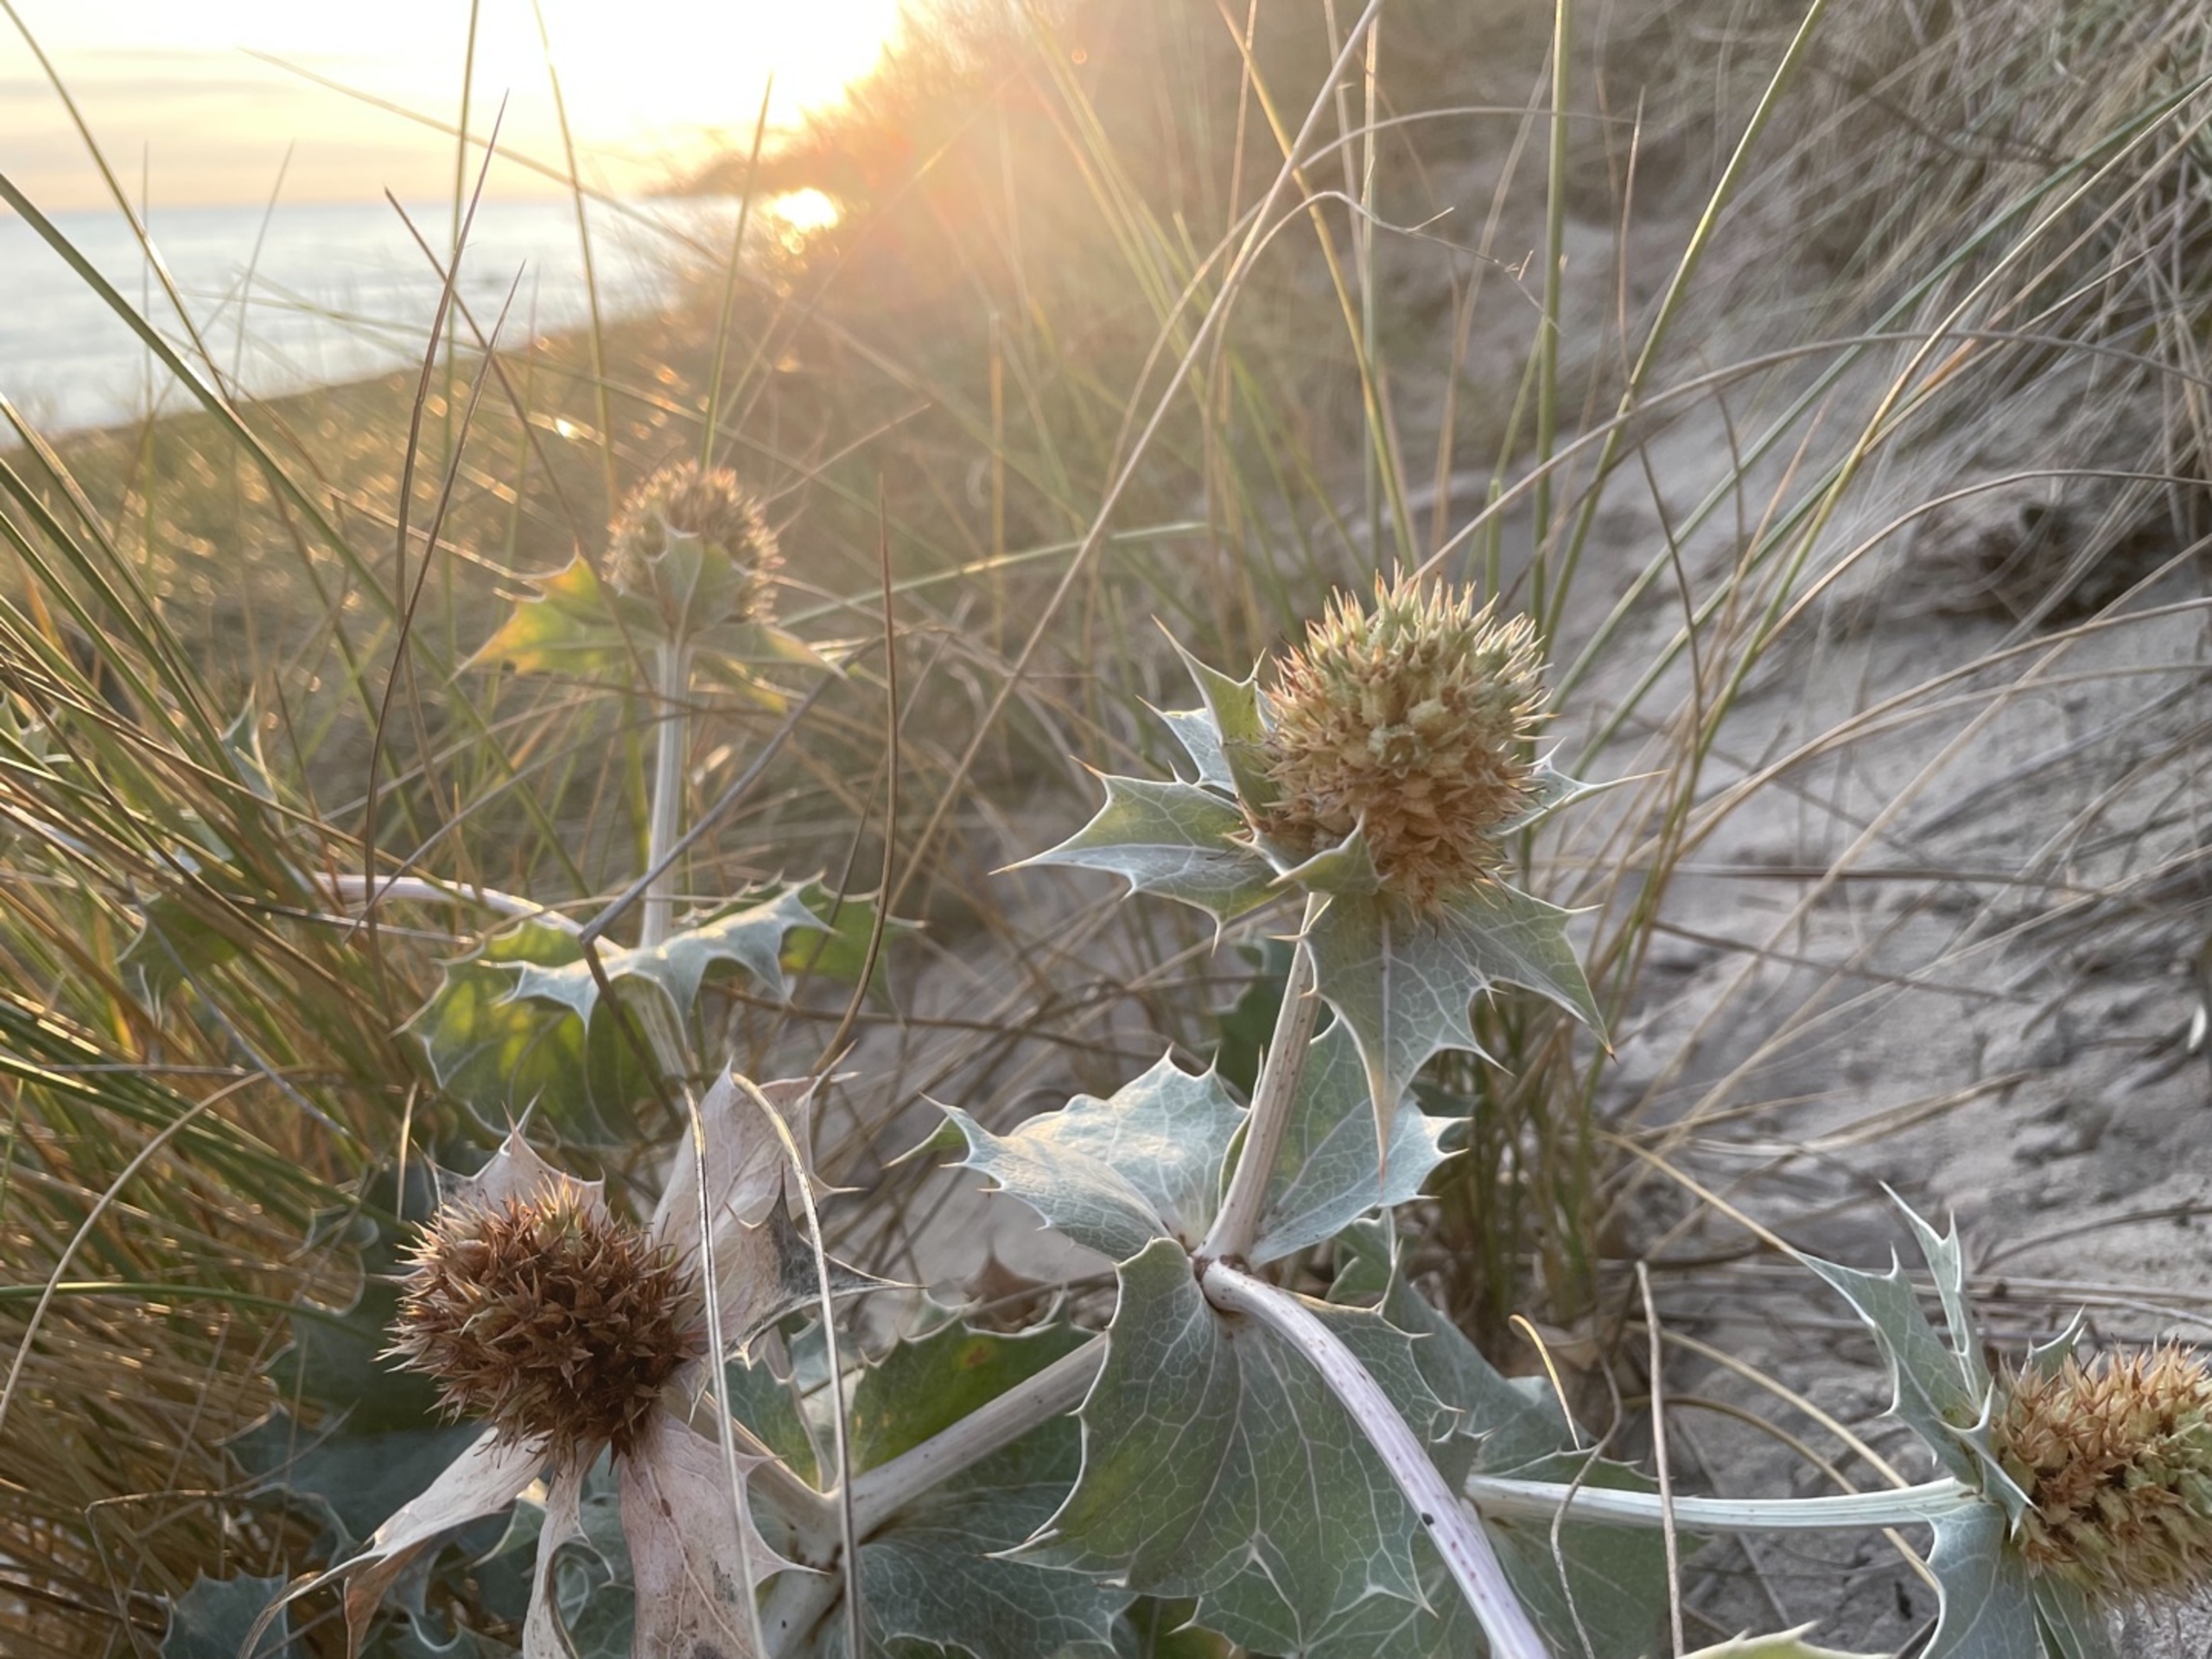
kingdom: Plantae
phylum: Tracheophyta
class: Magnoliopsida
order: Apiales
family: Apiaceae
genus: Eryngium
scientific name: Eryngium maritimum
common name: Strand-mandstro
